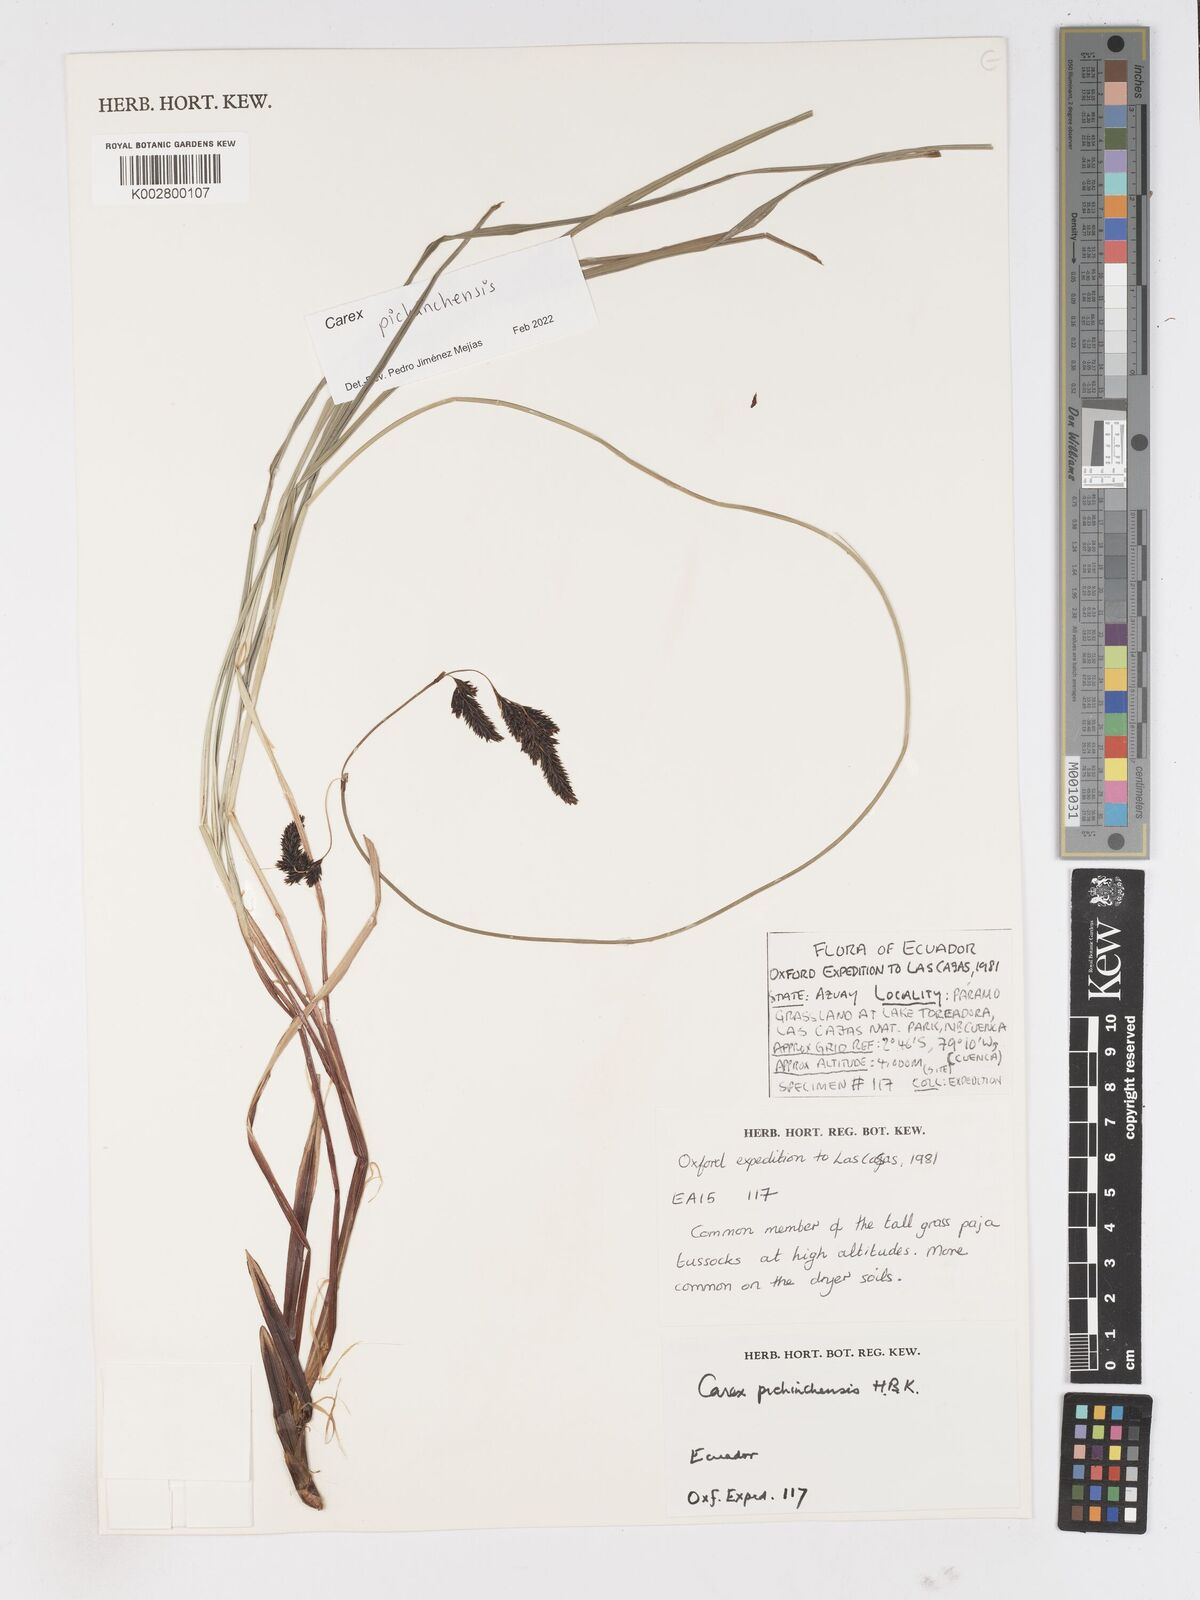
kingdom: Plantae
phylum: Tracheophyta
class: Liliopsida
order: Poales
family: Cyperaceae
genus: Carex
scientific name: Carex pichinchensis
